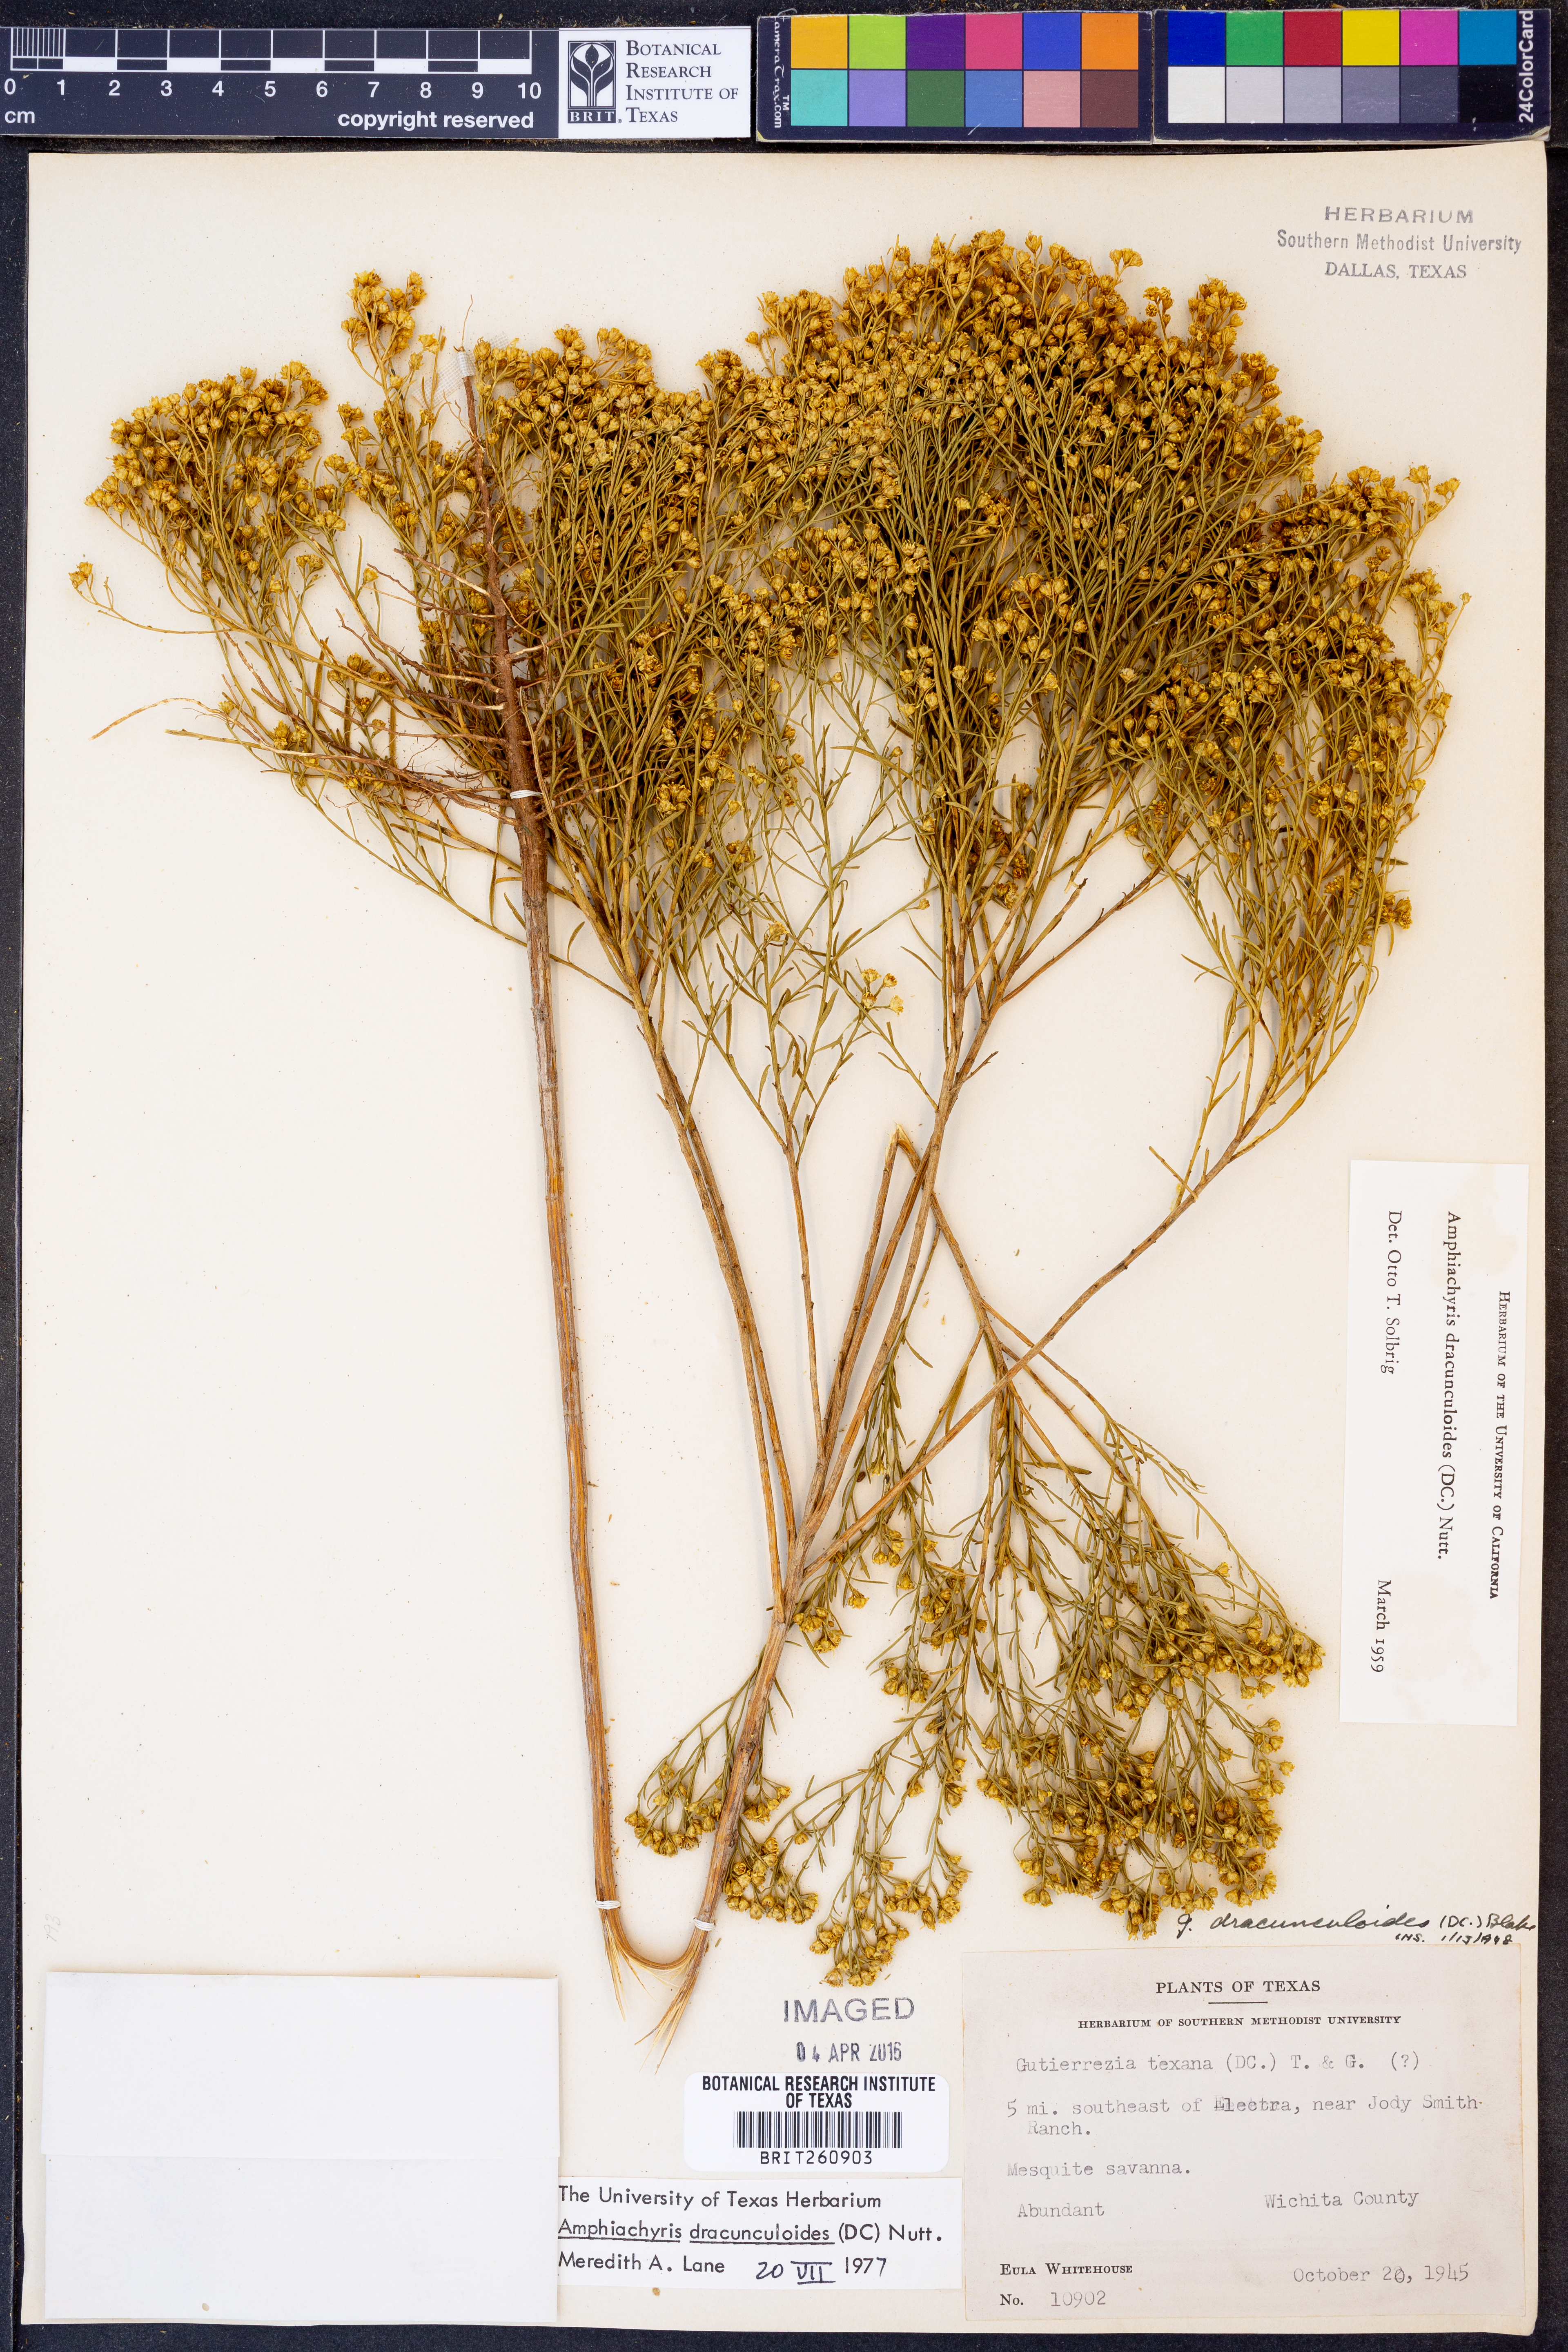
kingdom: Plantae
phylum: Tracheophyta
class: Magnoliopsida
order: Asterales
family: Asteraceae
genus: Amphiachyris
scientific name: Amphiachyris dracunculoides
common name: Broomweed
